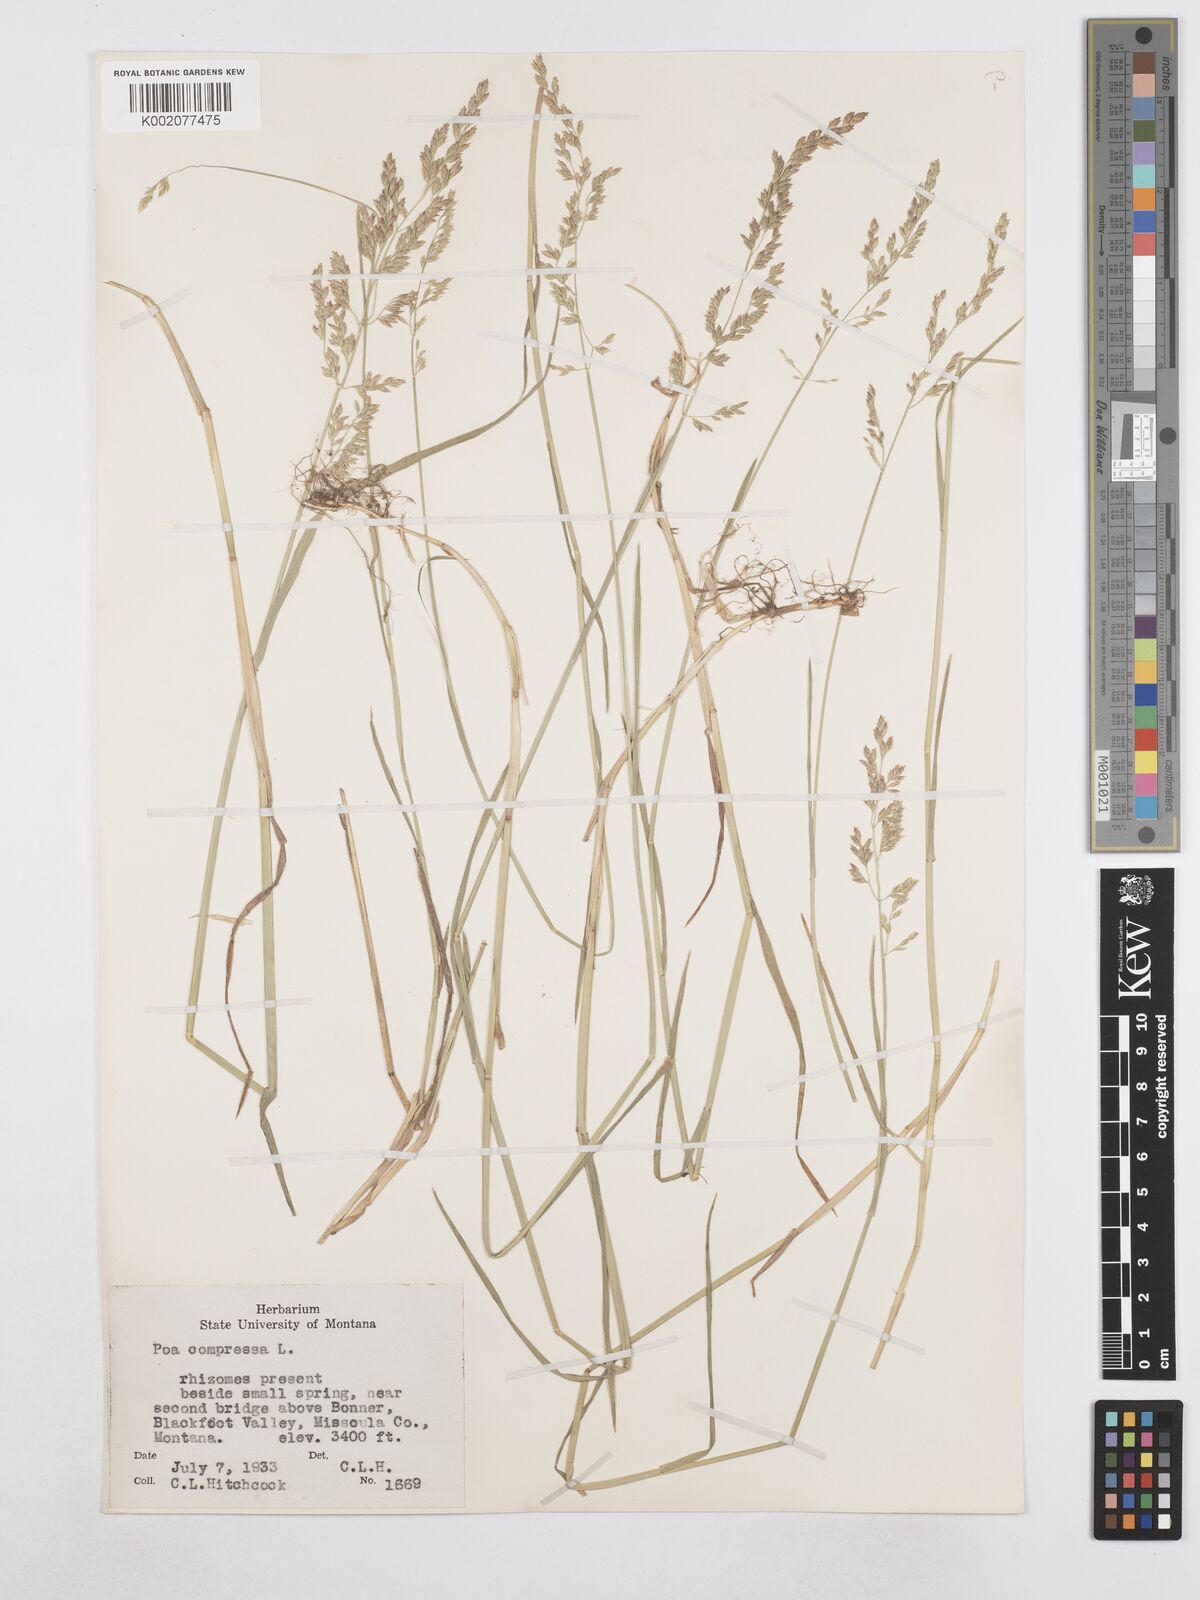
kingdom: Plantae
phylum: Tracheophyta
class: Liliopsida
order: Poales
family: Poaceae
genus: Poa
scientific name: Poa compressa
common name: Canada bluegrass
